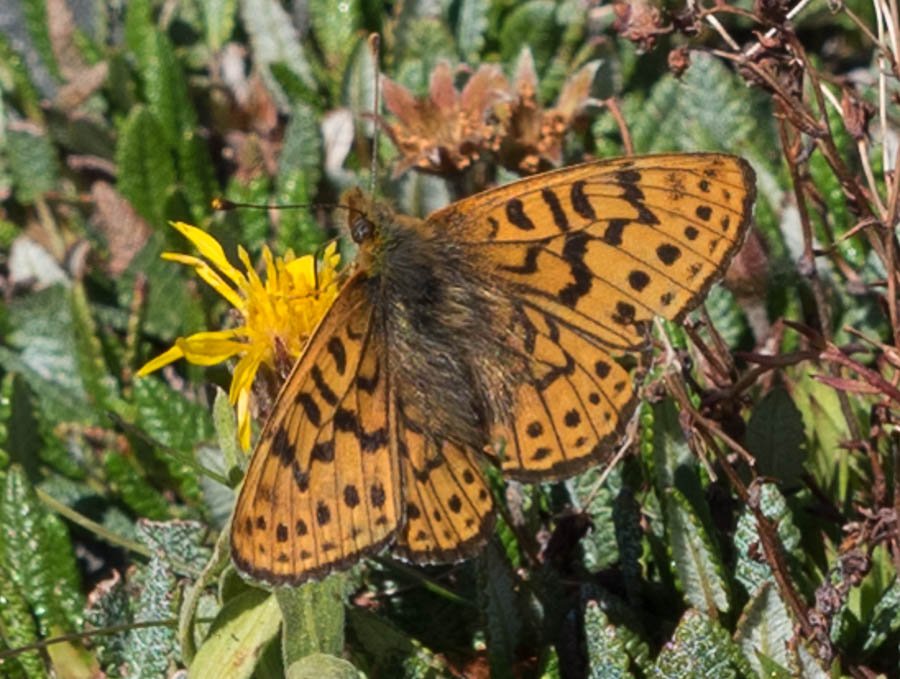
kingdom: Animalia
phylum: Arthropoda
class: Insecta
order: Lepidoptera
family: Nymphalidae
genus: Clossiana
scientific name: Clossiana astarte
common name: Astarte Fritillary
